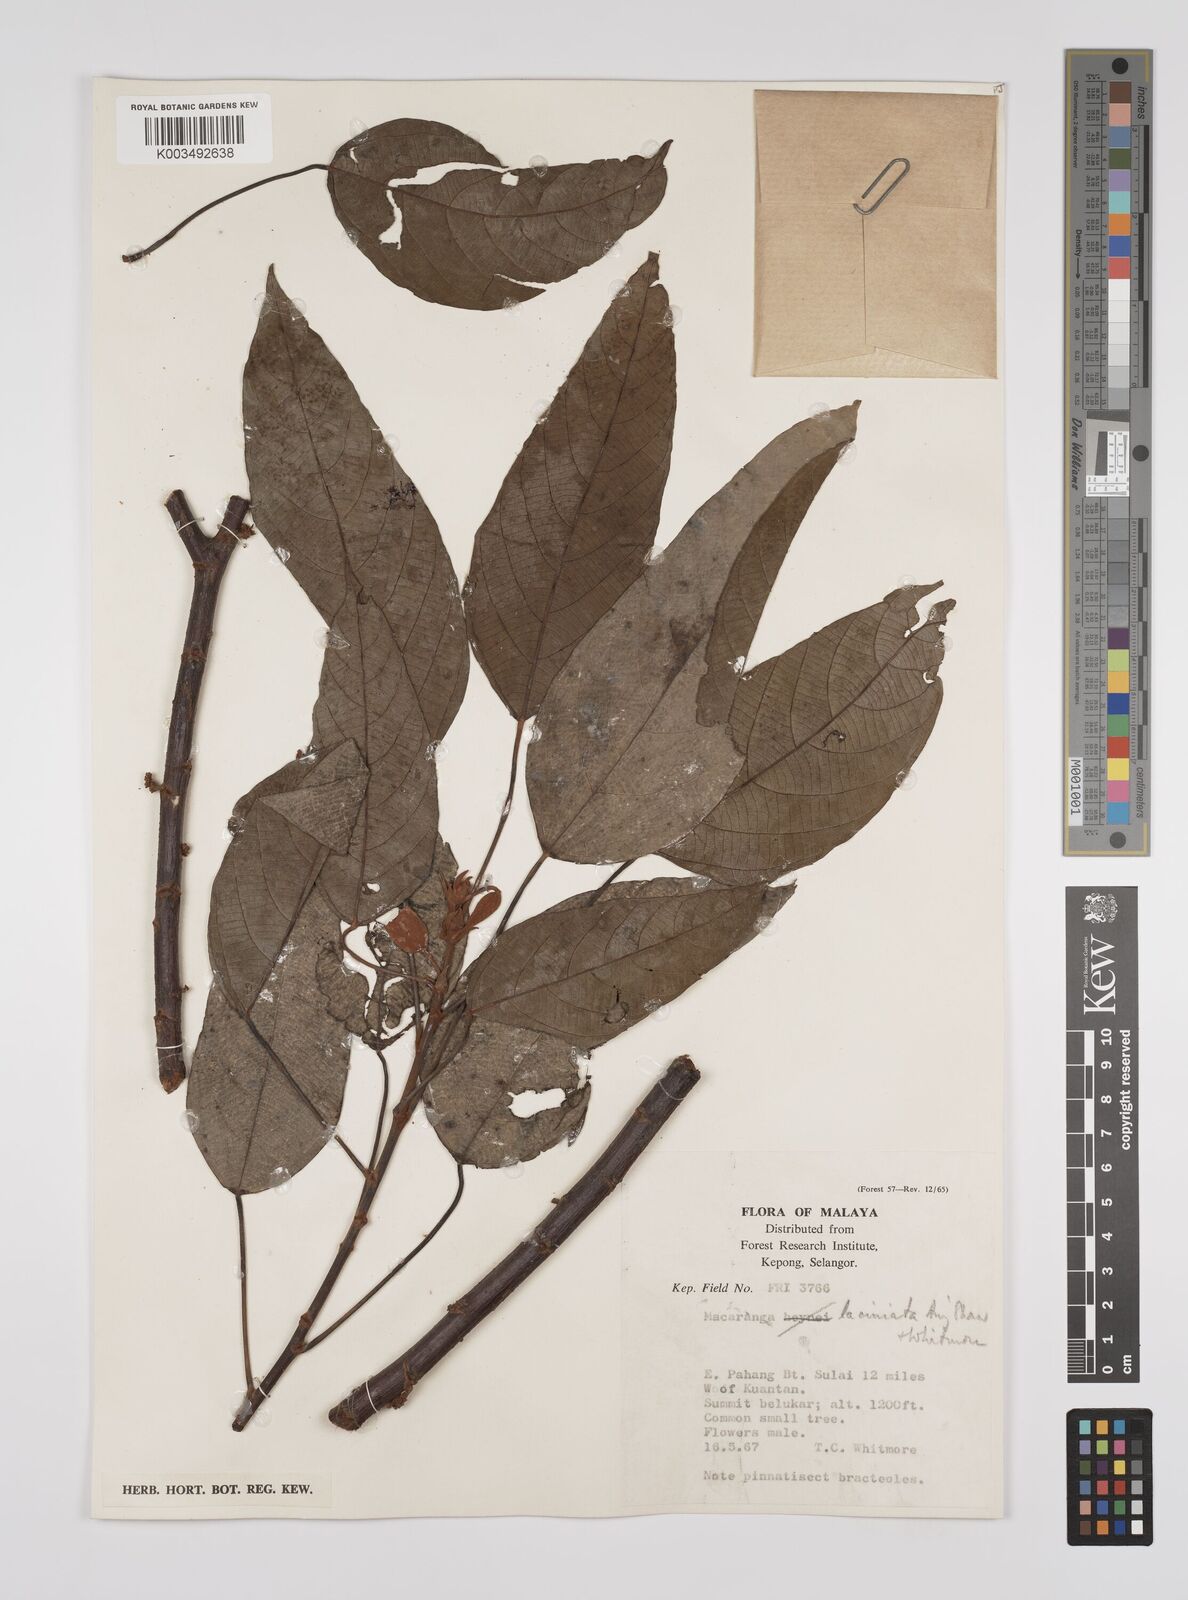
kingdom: Plantae
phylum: Tracheophyta
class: Magnoliopsida
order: Malpighiales
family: Euphorbiaceae
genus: Macaranga
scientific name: Macaranga laciniata
